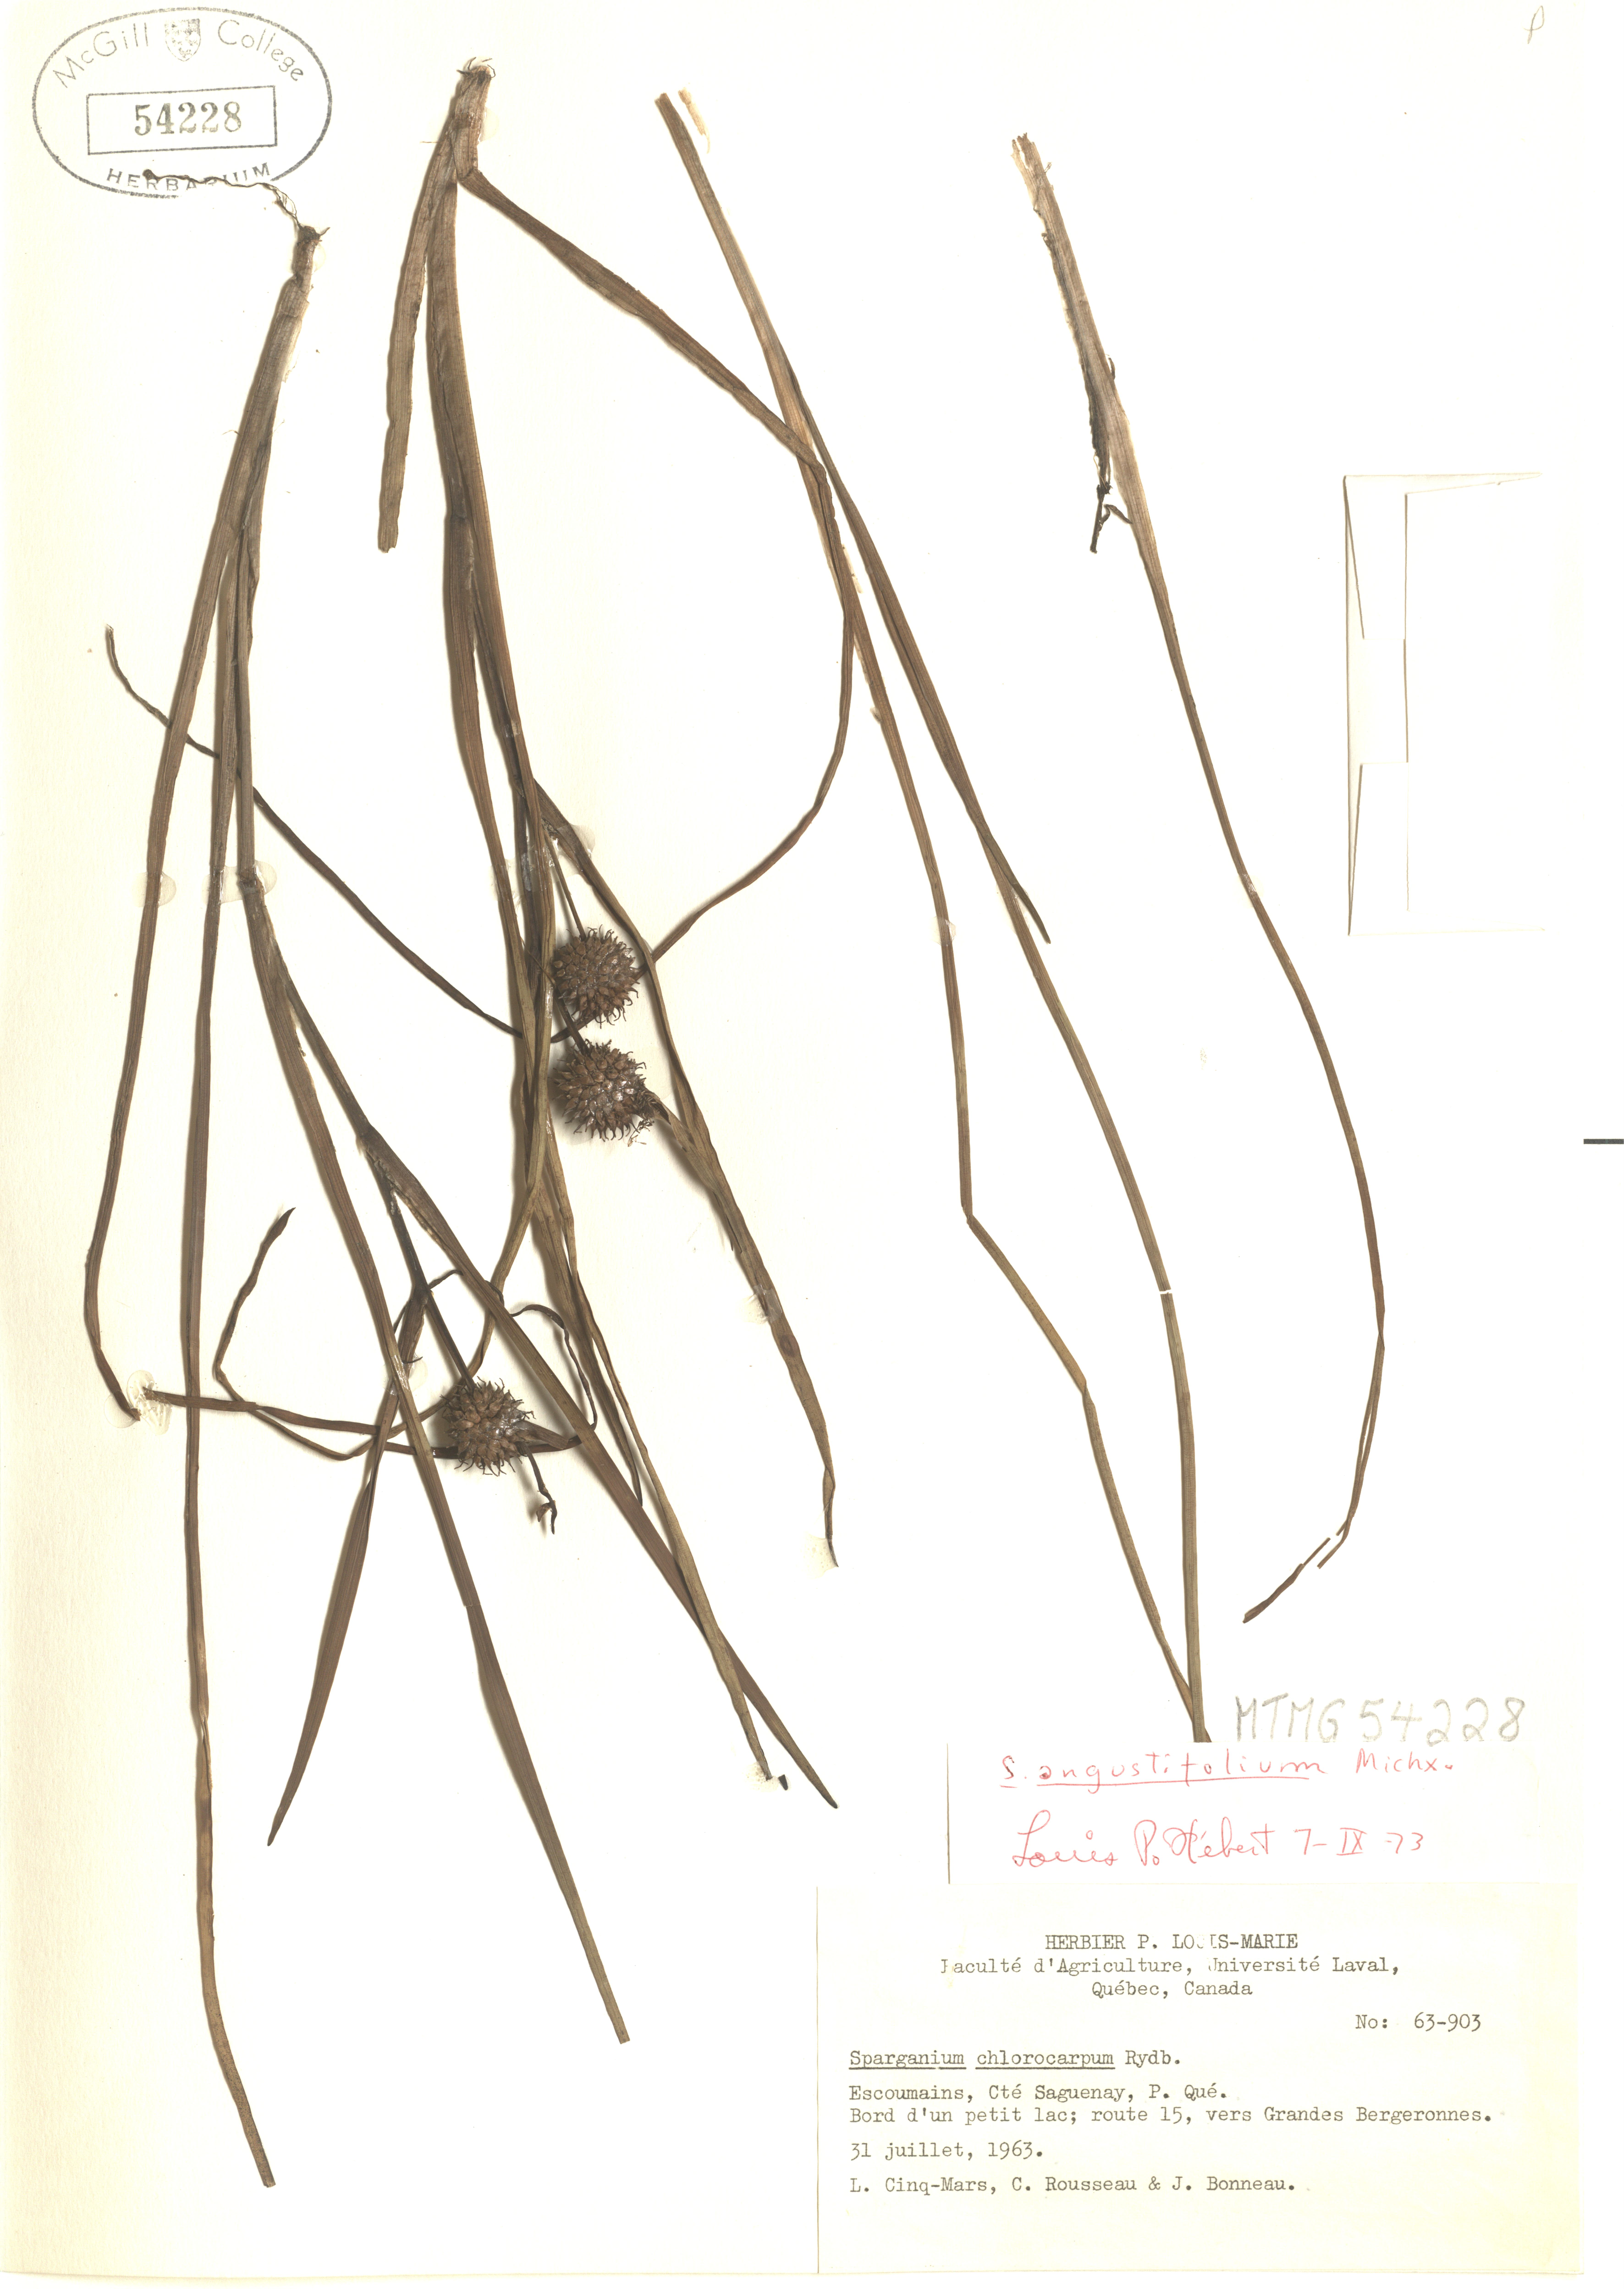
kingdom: Plantae
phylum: Tracheophyta
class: Liliopsida
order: Poales
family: Typhaceae
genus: Sparganium
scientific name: Sparganium angustifolium
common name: Floating bur-reed
